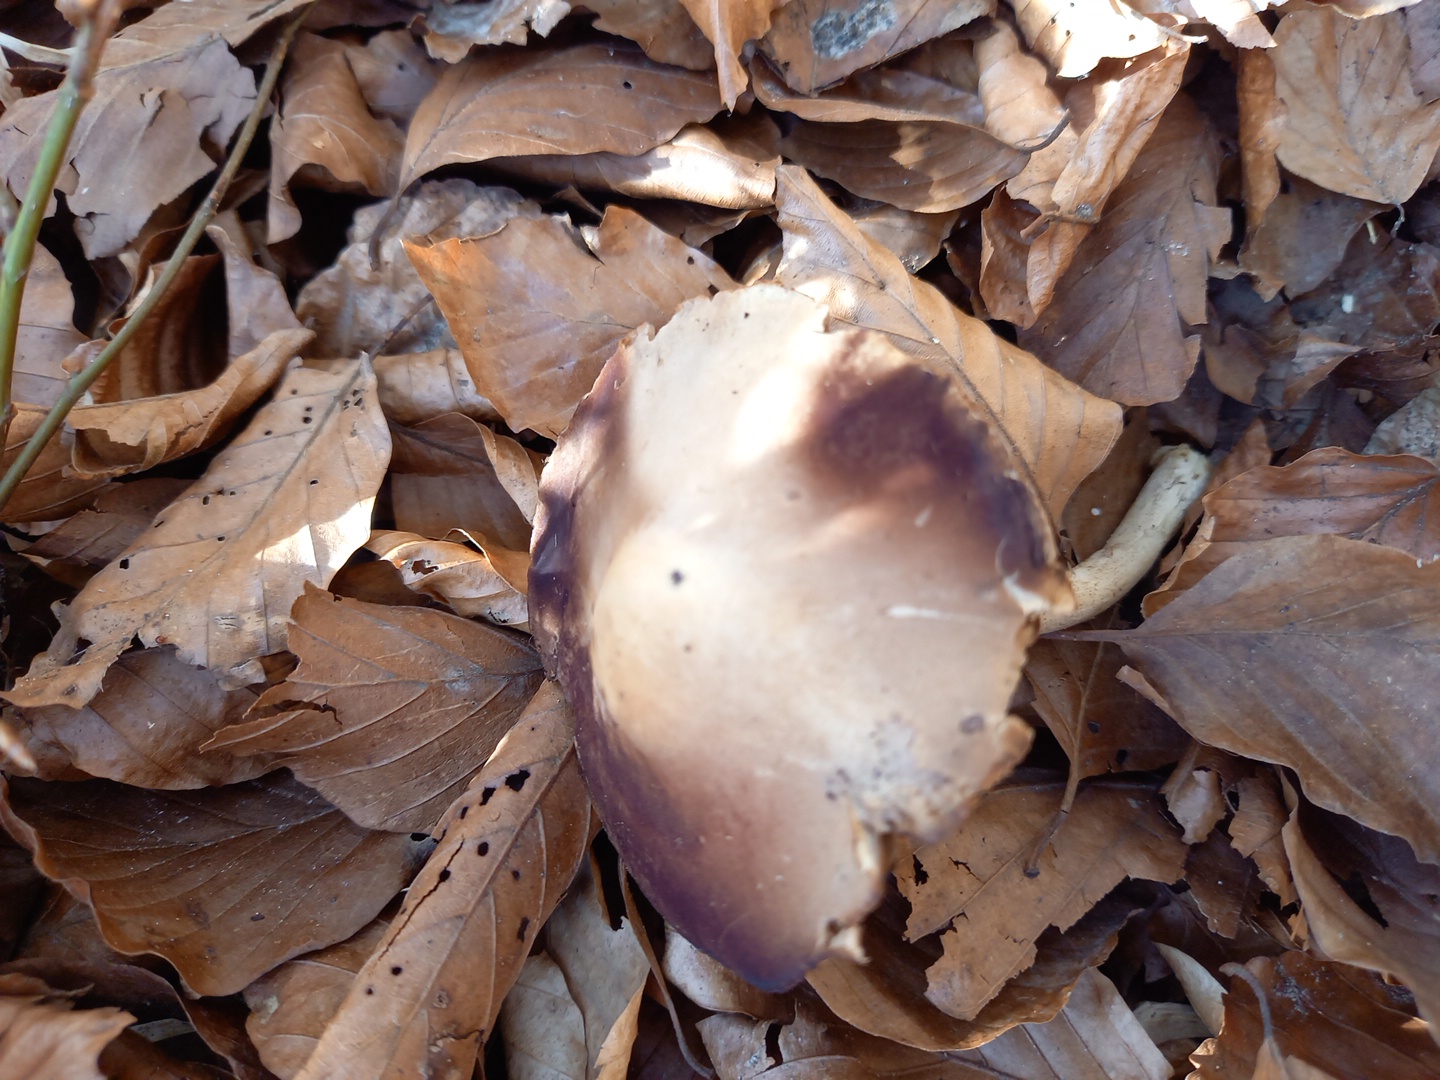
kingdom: Fungi
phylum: Basidiomycota
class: Agaricomycetes
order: Agaricales
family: Psathyrellaceae
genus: Psathyrella
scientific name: Psathyrella spadiceogrisea
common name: gråbrun mørkhat
